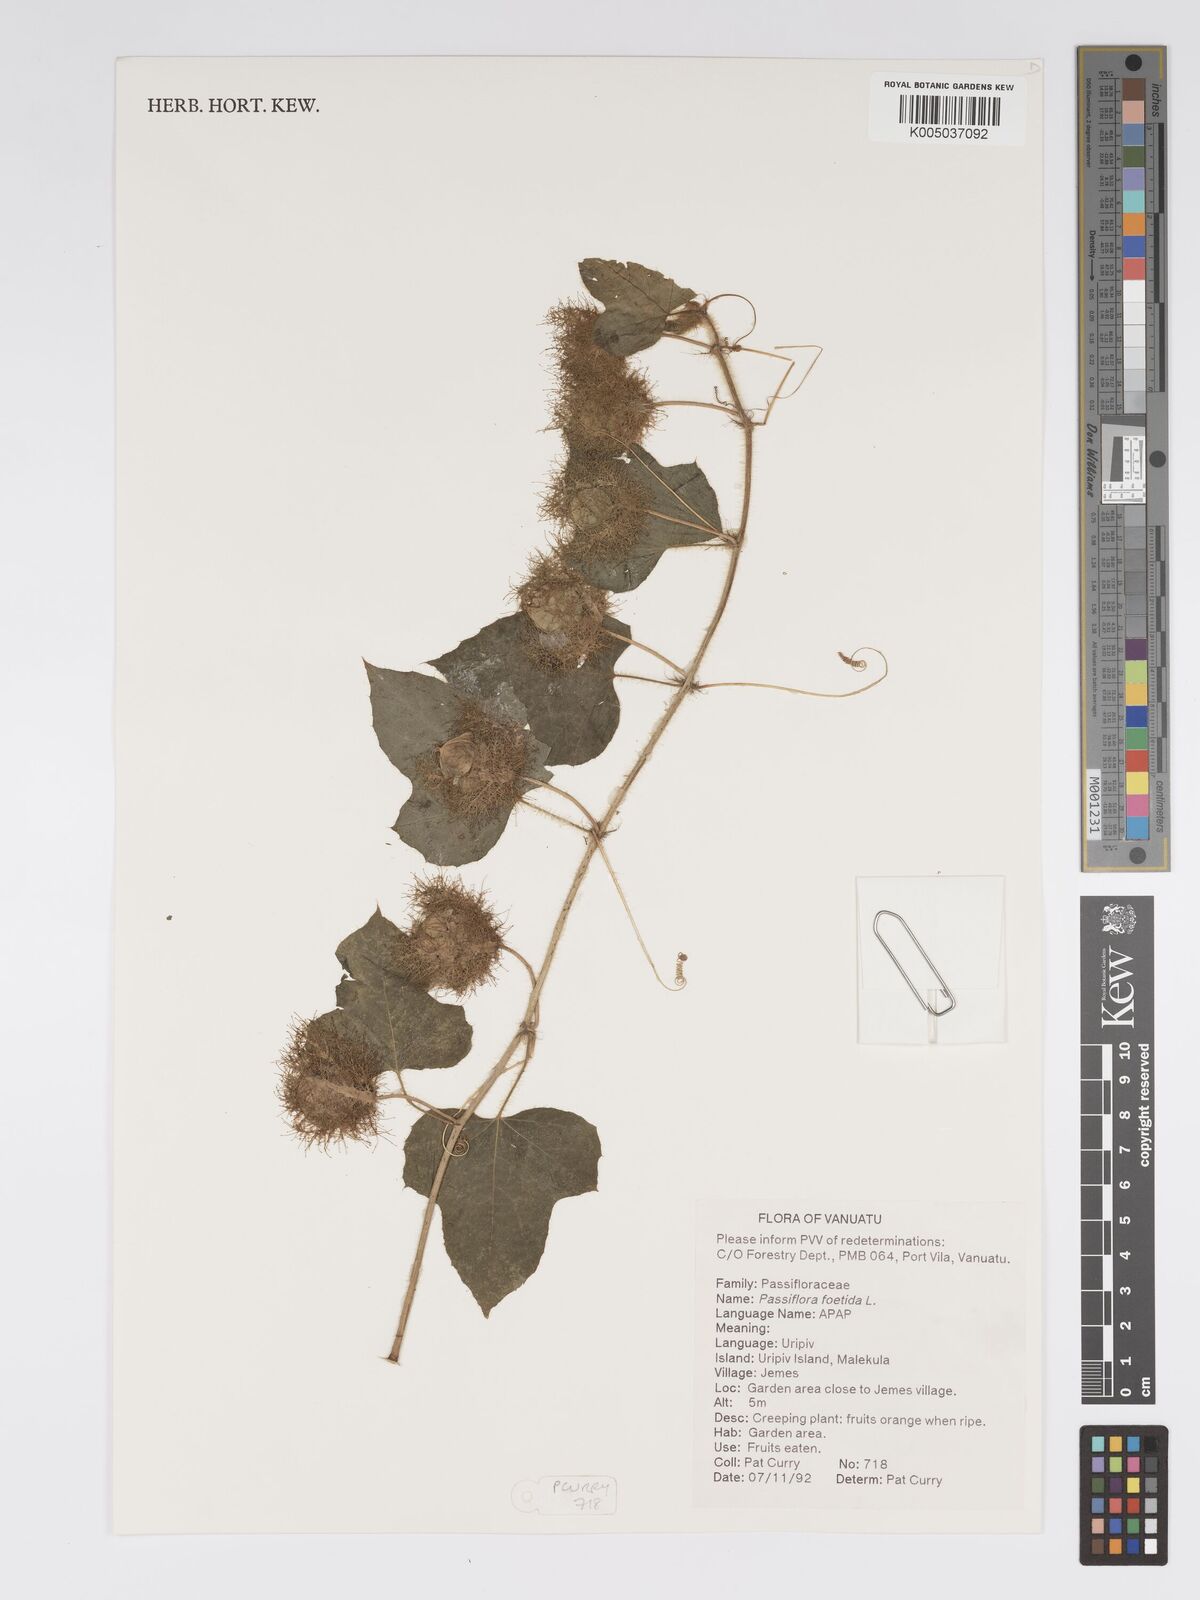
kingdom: Plantae
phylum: Tracheophyta
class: Magnoliopsida
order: Malpighiales
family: Passifloraceae
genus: Passiflora
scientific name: Passiflora foetida
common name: Fetid passionflower
